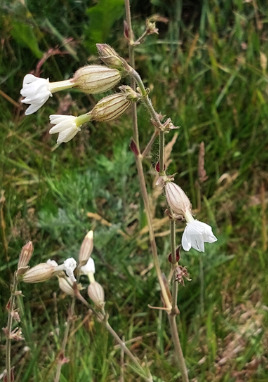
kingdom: Plantae
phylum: Tracheophyta
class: Magnoliopsida
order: Caryophyllales
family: Caryophyllaceae
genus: Silene
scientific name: Silene latifolia
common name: Aftenpragtstjerne
